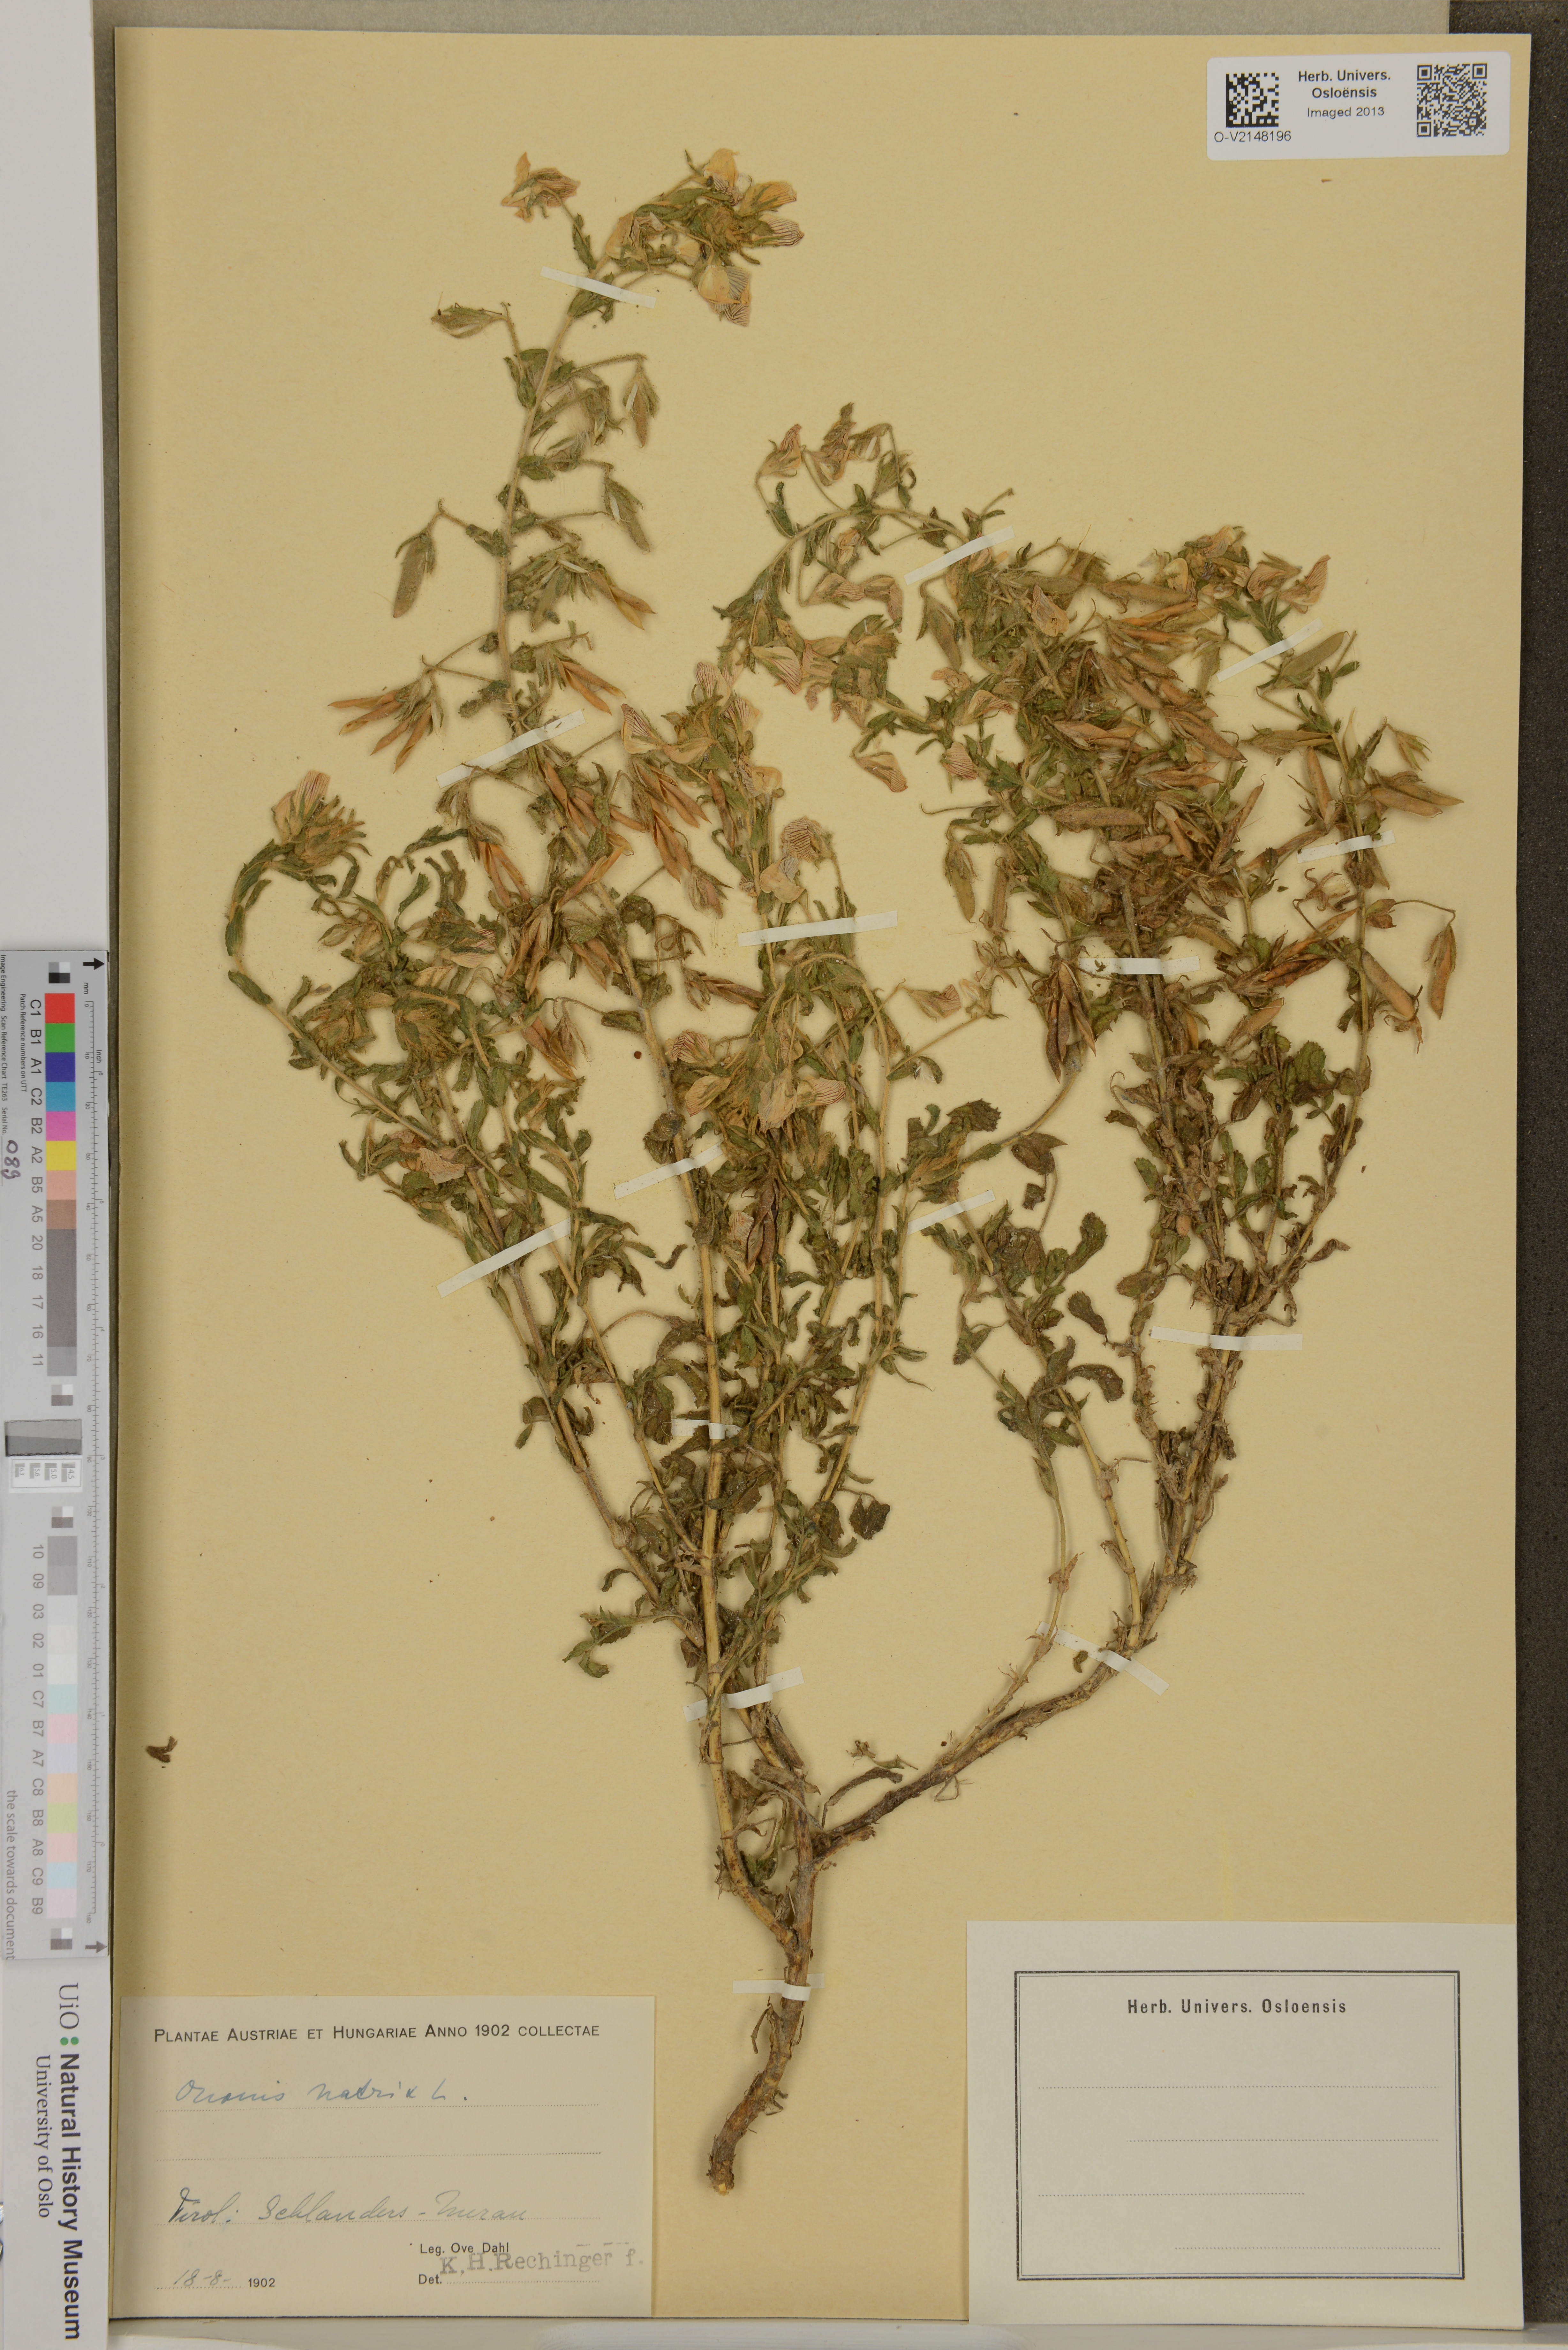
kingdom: Plantae
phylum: Tracheophyta
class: Magnoliopsida
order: Fabales
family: Fabaceae
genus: Ononis
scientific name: Ononis natrix
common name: Yellow restharrow
